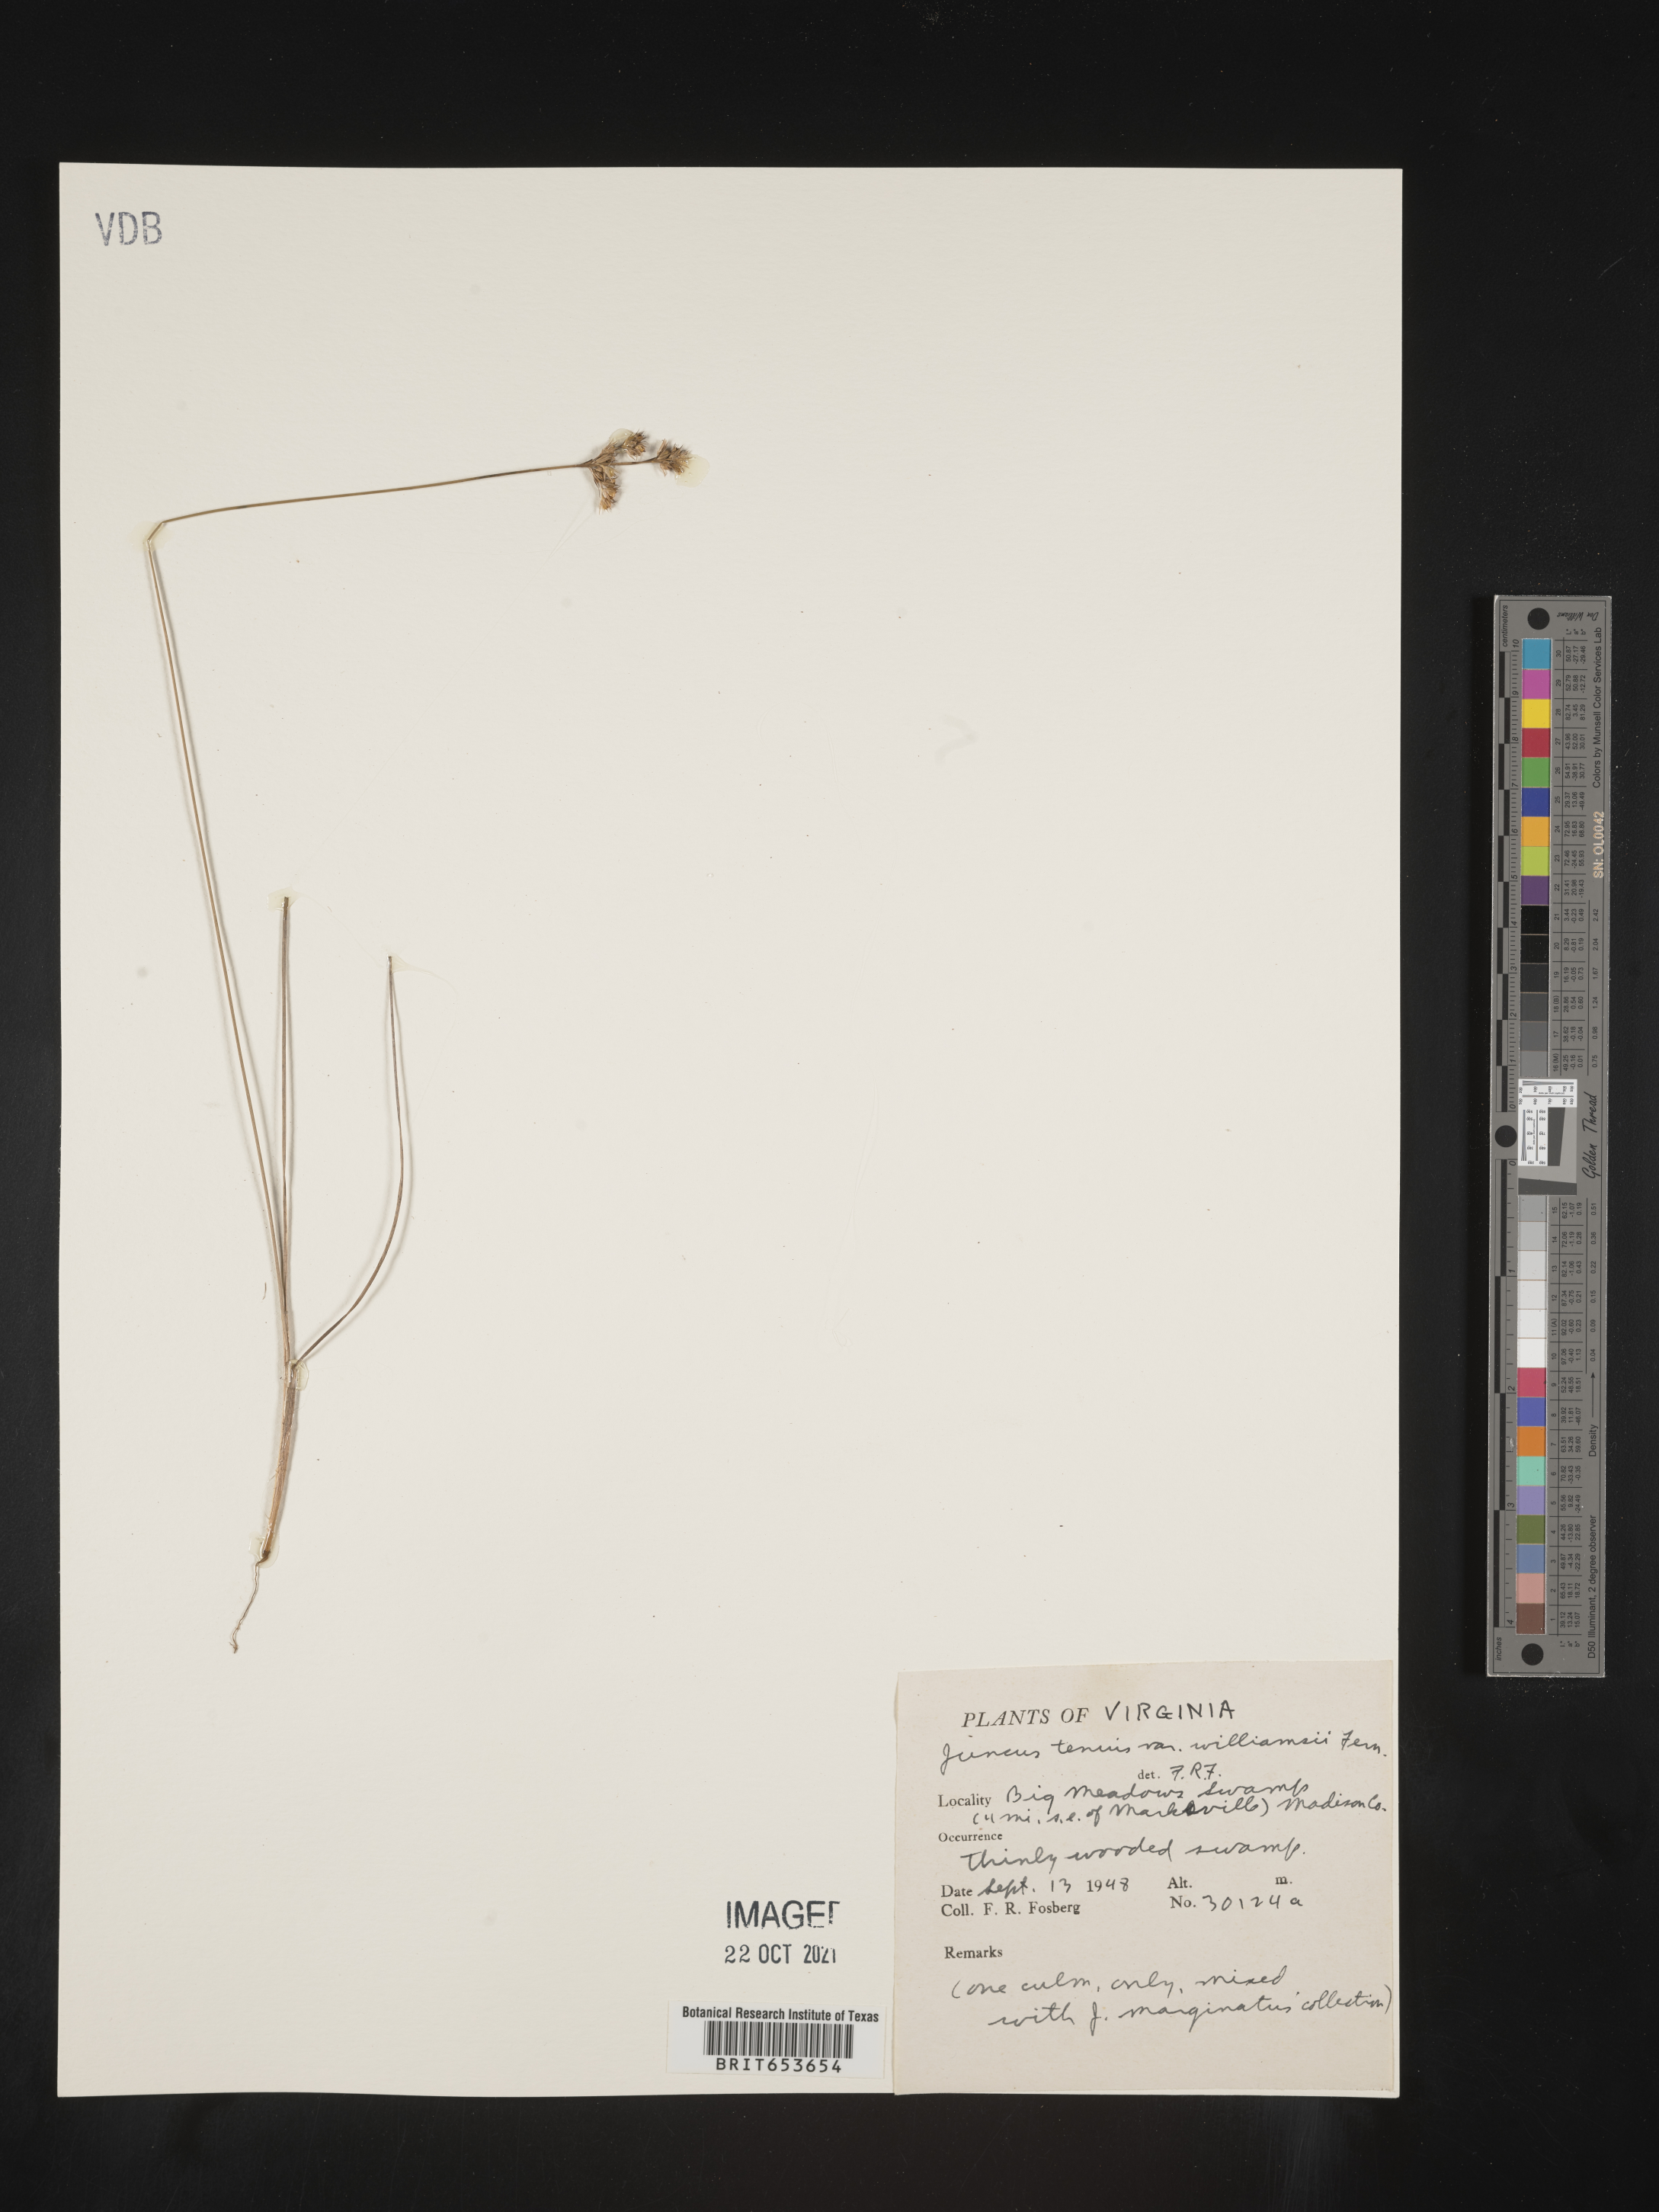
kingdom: Plantae
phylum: Tracheophyta
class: Liliopsida
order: Poales
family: Juncaceae
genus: Juncus
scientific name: Juncus tenuis
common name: Slender rush
